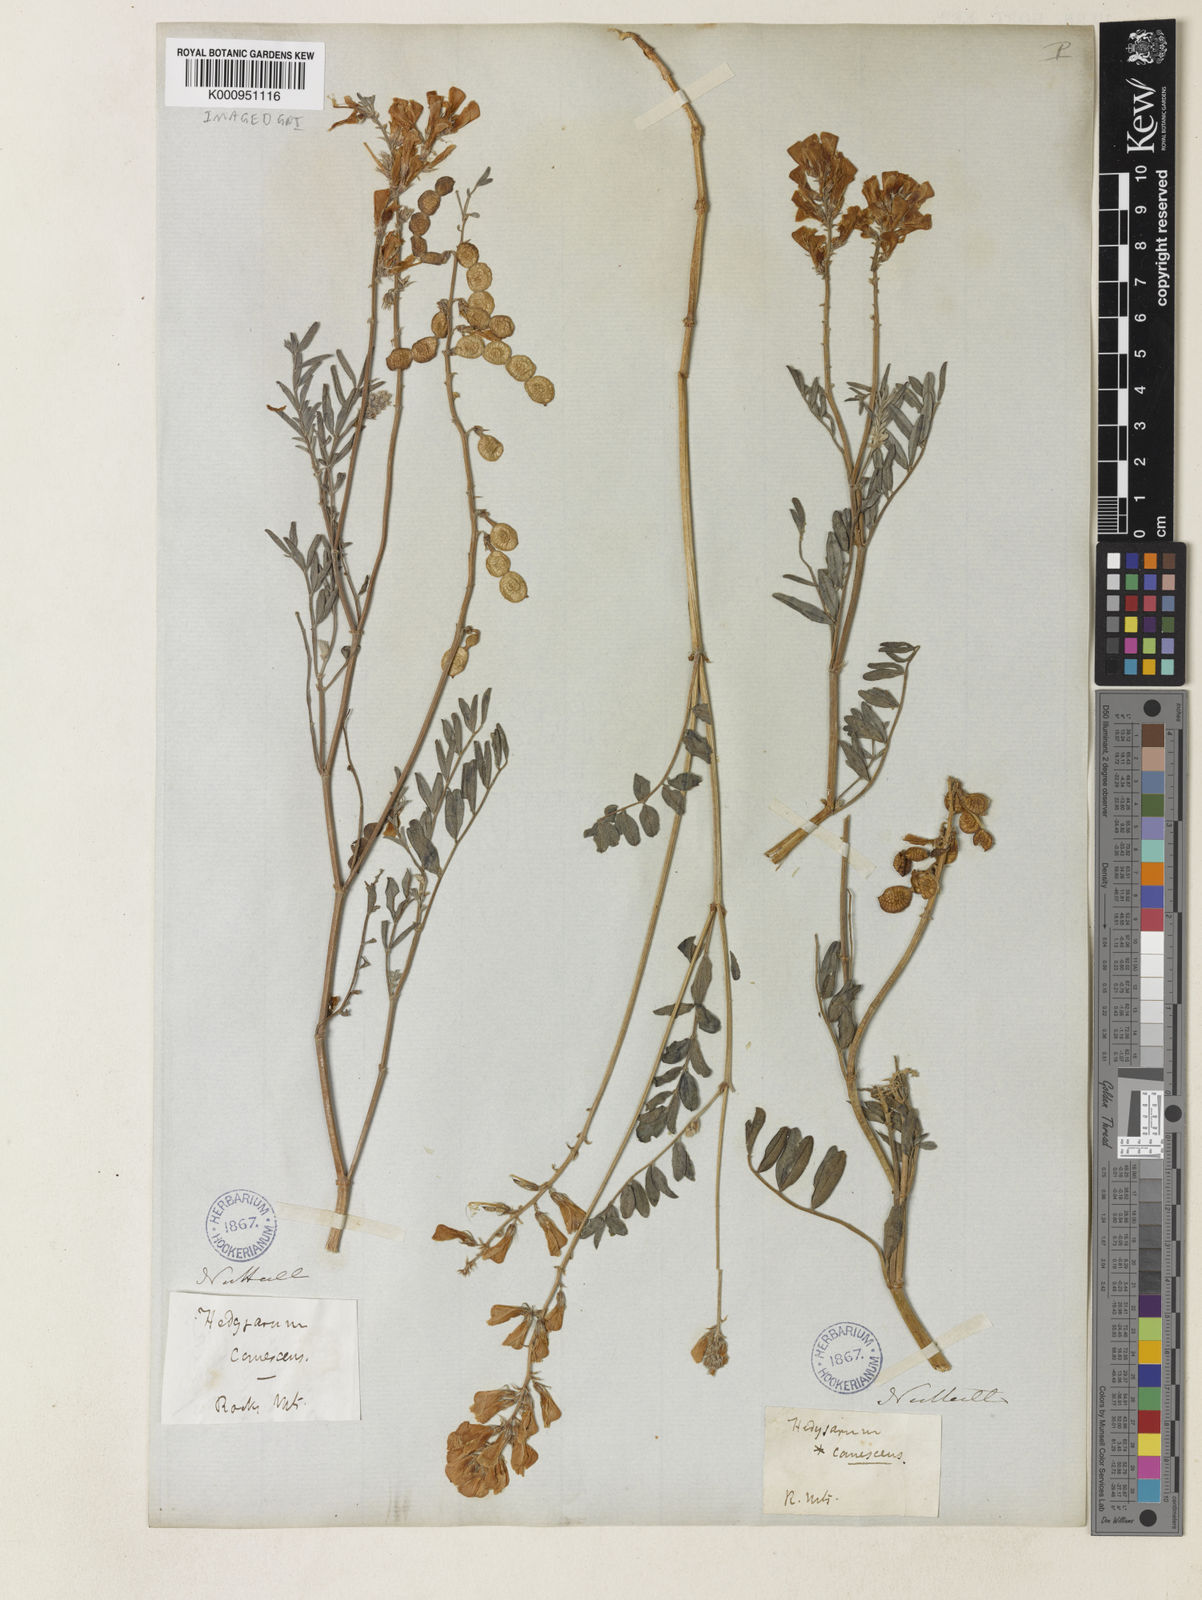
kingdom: Plantae
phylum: Tracheophyta
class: Magnoliopsida
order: Fabales
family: Fabaceae
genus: Hedysarum
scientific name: Hedysarum boreale
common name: Northern sweet-vetch
